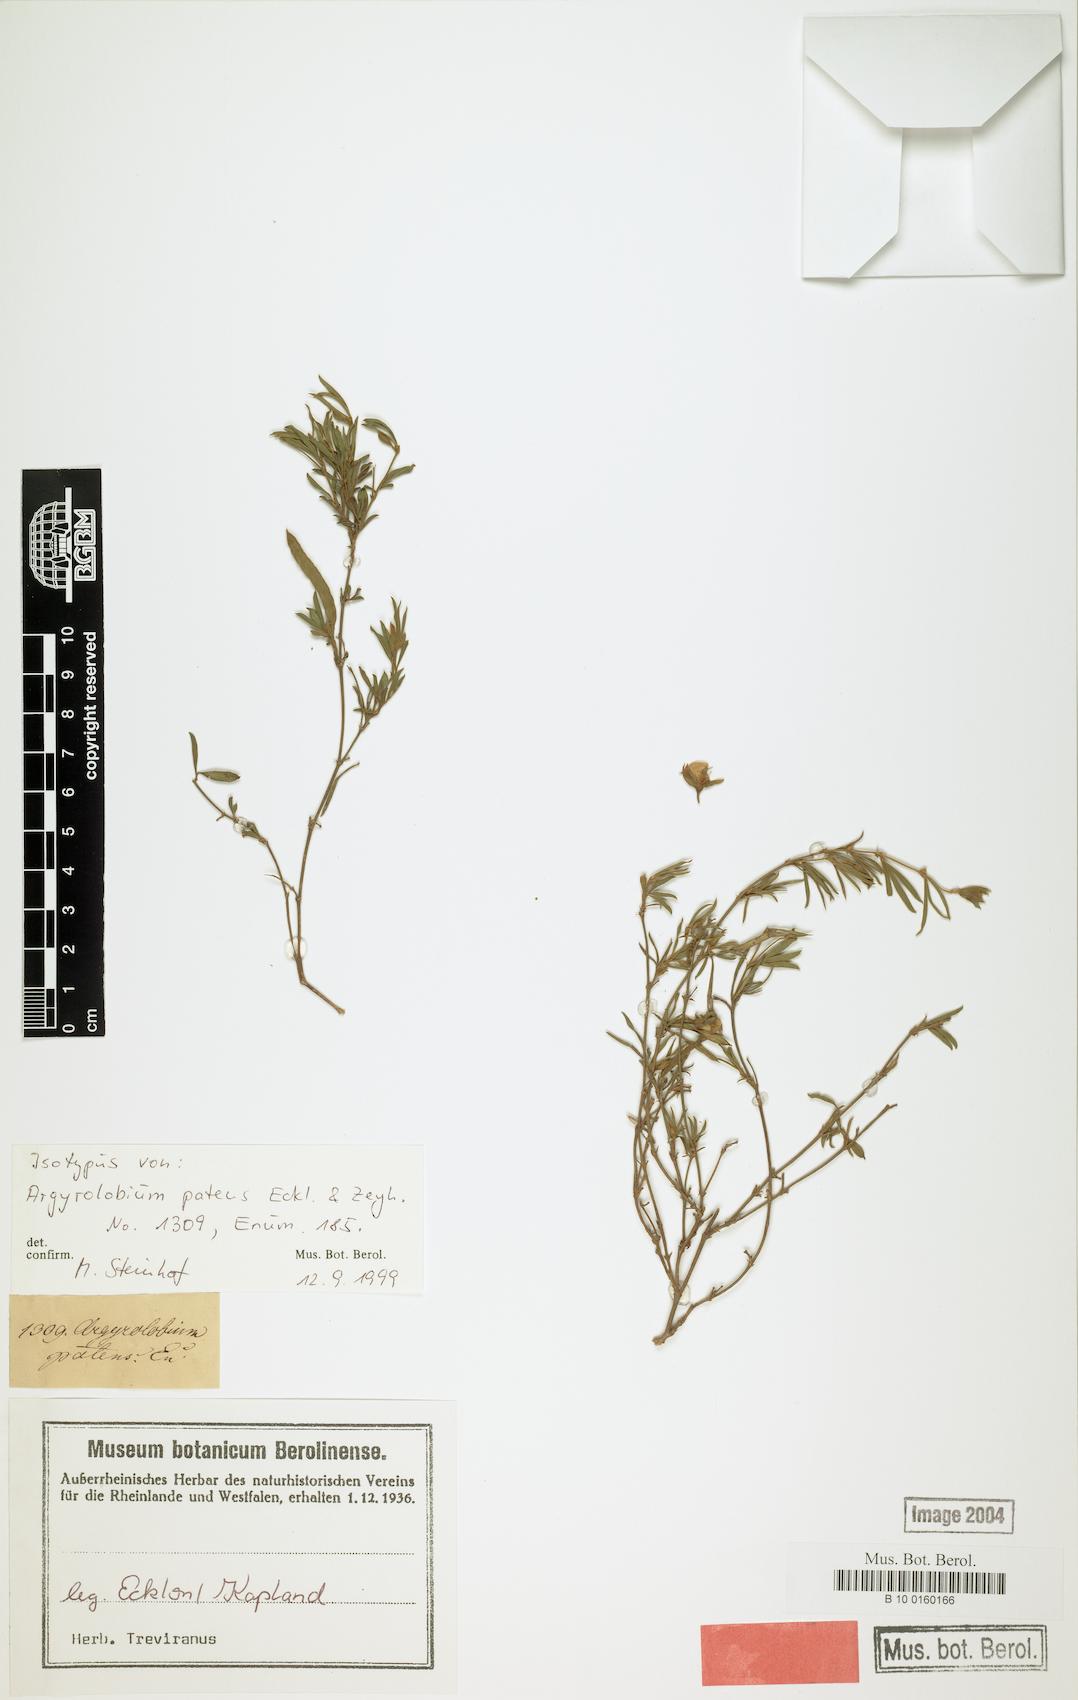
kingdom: Plantae
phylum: Tracheophyta
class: Magnoliopsida
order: Fabales
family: Fabaceae
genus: Argyrolobium
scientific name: Argyrolobium molle
